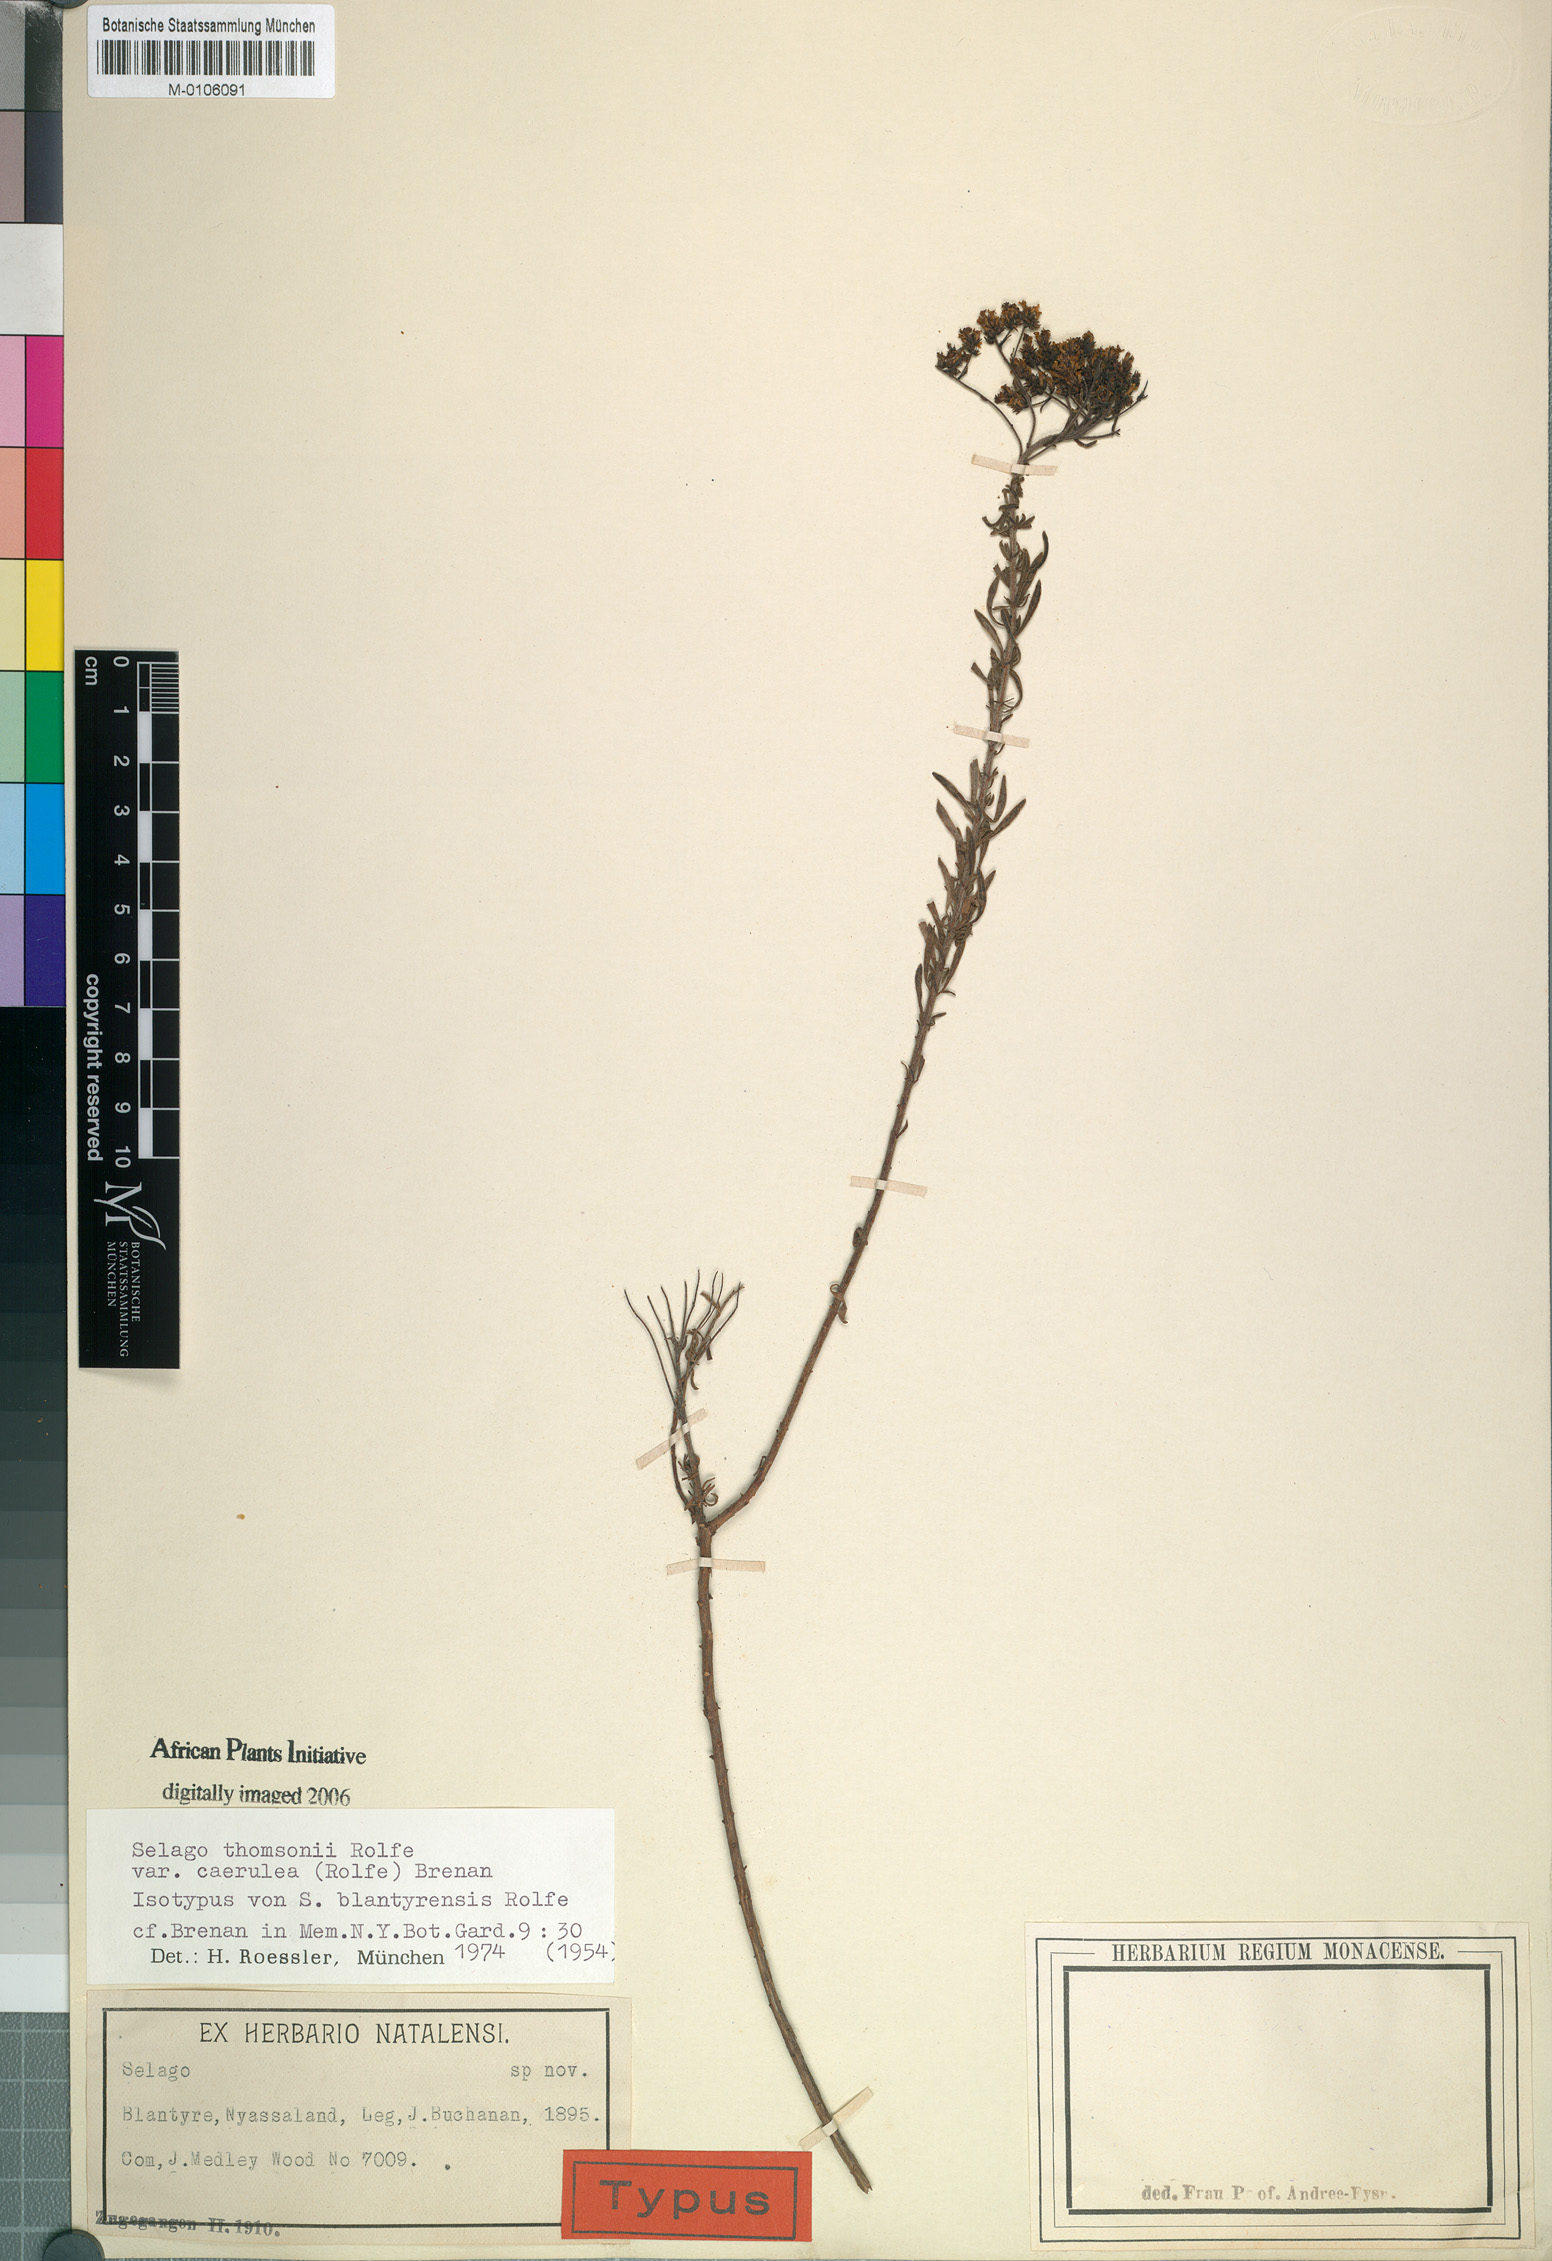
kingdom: Plantae
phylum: Tracheophyta
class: Magnoliopsida
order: Lamiales
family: Scrophulariaceae
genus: Selago
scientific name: Selago caerulea
